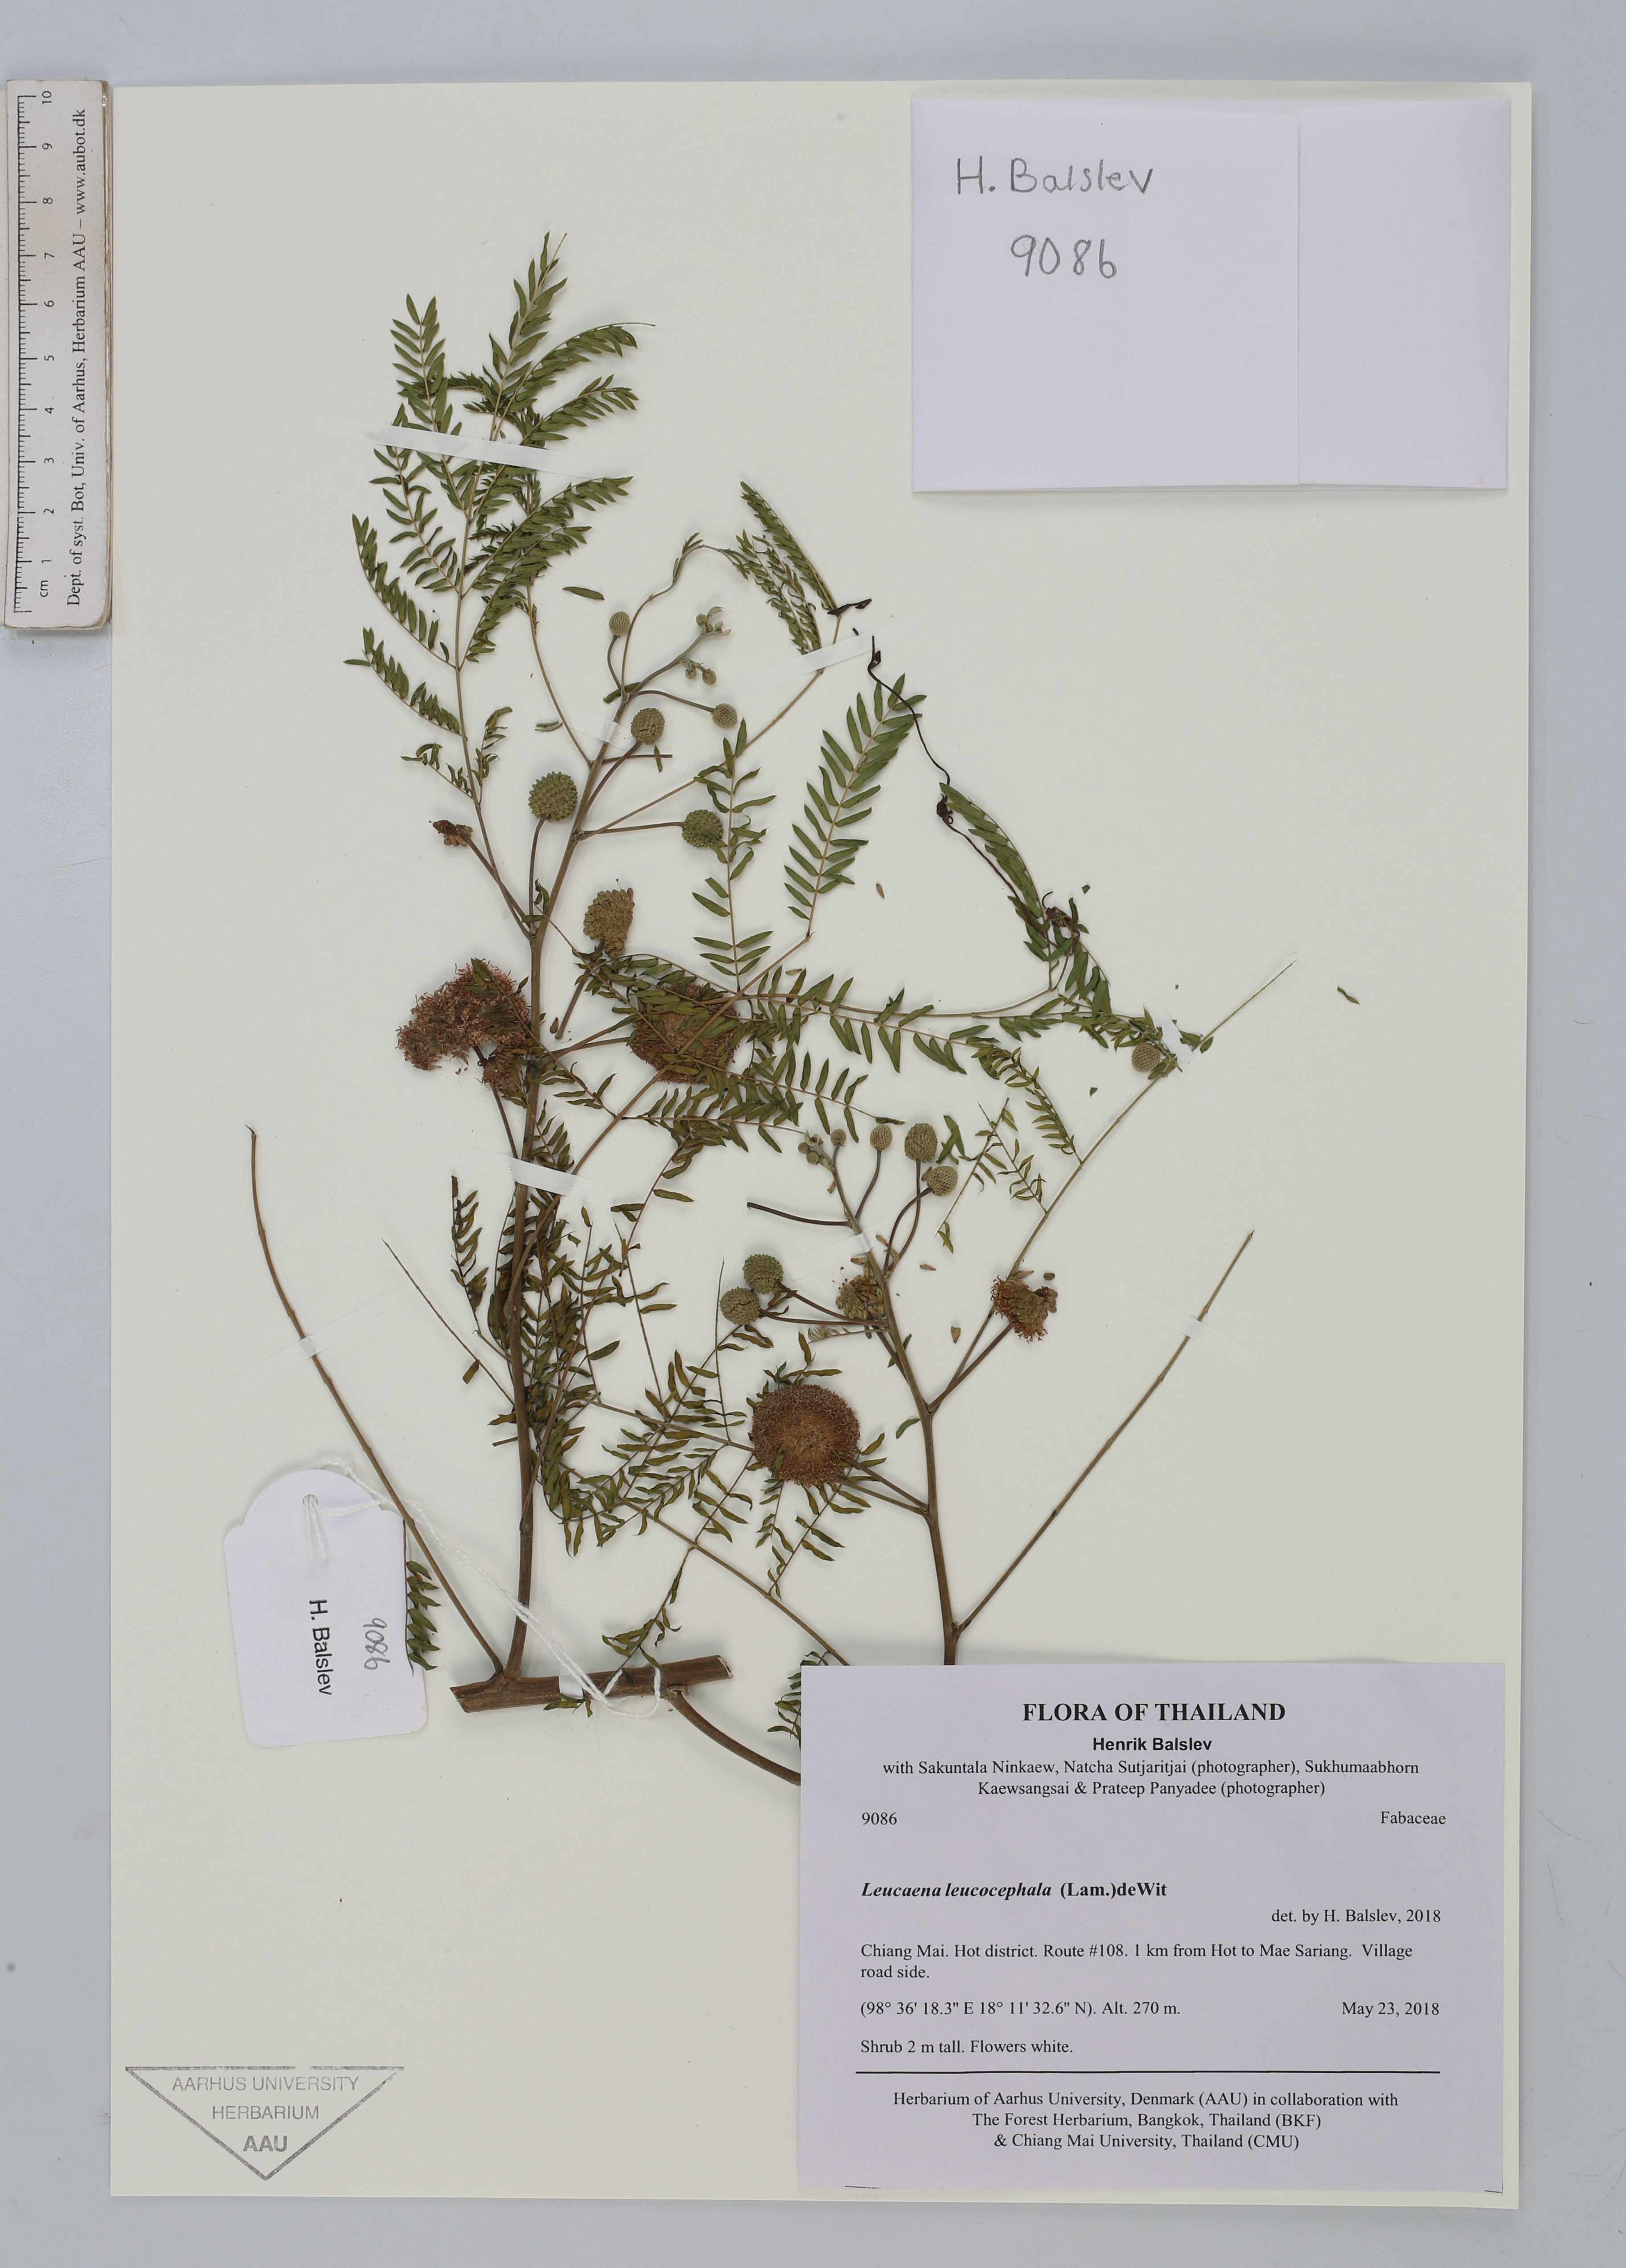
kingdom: Plantae
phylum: Tracheophyta
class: Magnoliopsida
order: Fabales
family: Fabaceae
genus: Leucaena
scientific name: Leucaena leucocephala
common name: White leadtree
